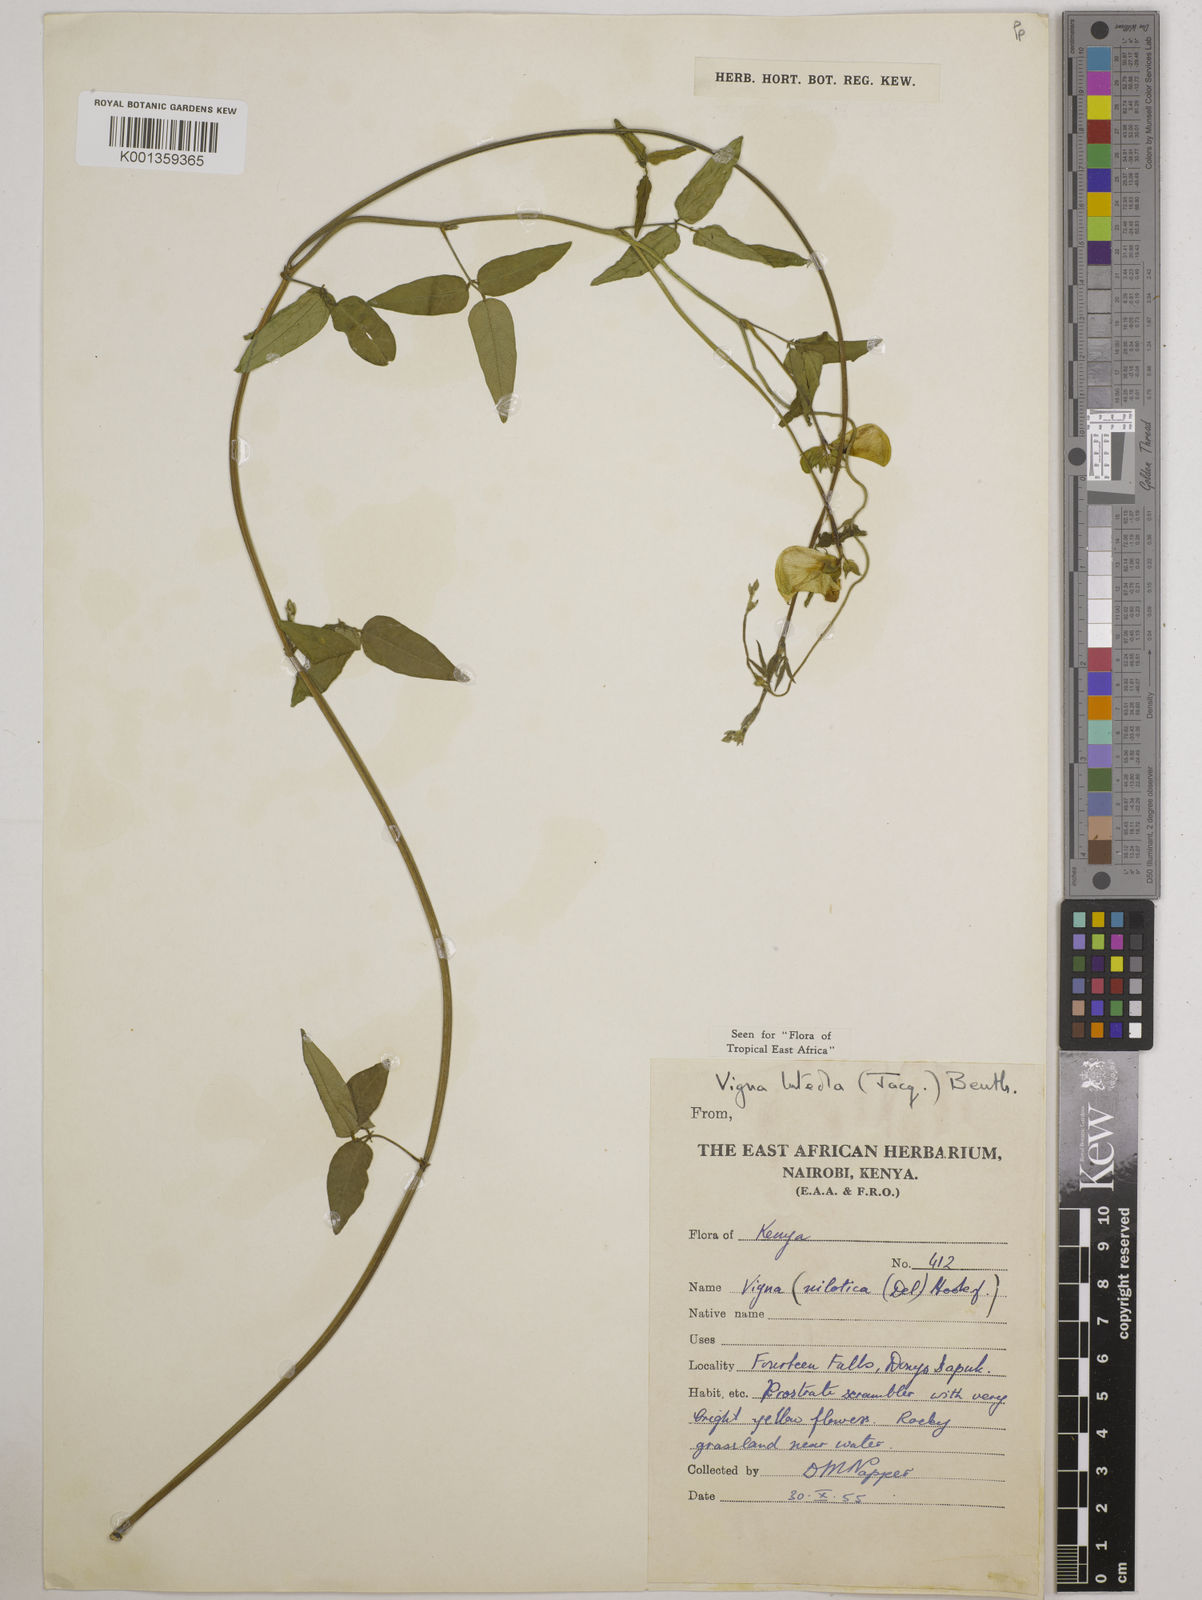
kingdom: Plantae
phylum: Tracheophyta
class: Magnoliopsida
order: Fabales
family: Fabaceae
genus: Vigna
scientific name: Vigna luteola
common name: Hairypod cowpea
